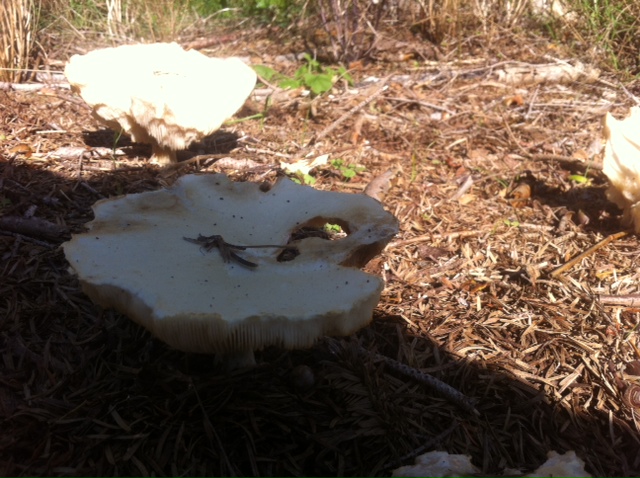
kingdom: Fungi
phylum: Basidiomycota
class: Agaricomycetes
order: Agaricales
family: Tricholomataceae
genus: Aspropaxillus
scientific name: Aspropaxillus giganteus
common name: kæmpe-tragtridderhat
